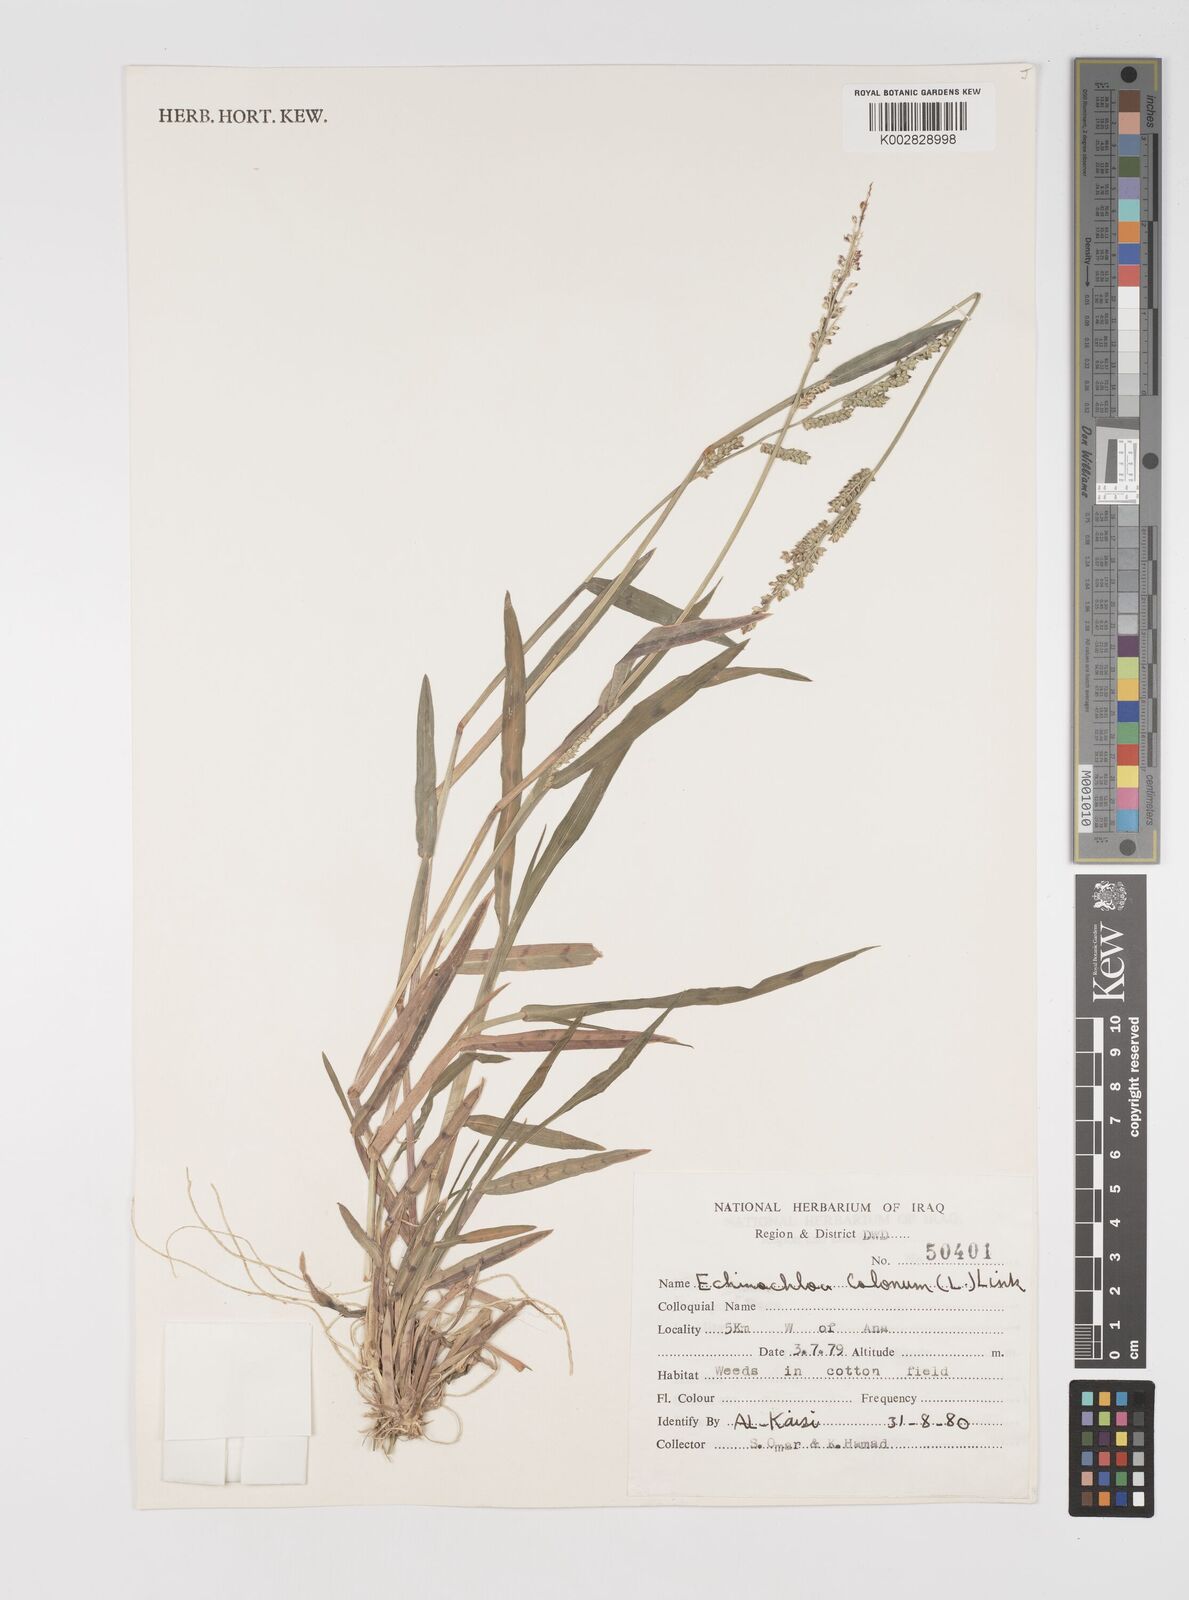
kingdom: Plantae
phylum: Tracheophyta
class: Liliopsida
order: Poales
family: Poaceae
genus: Echinochloa
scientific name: Echinochloa colonum
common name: Jungle rice
